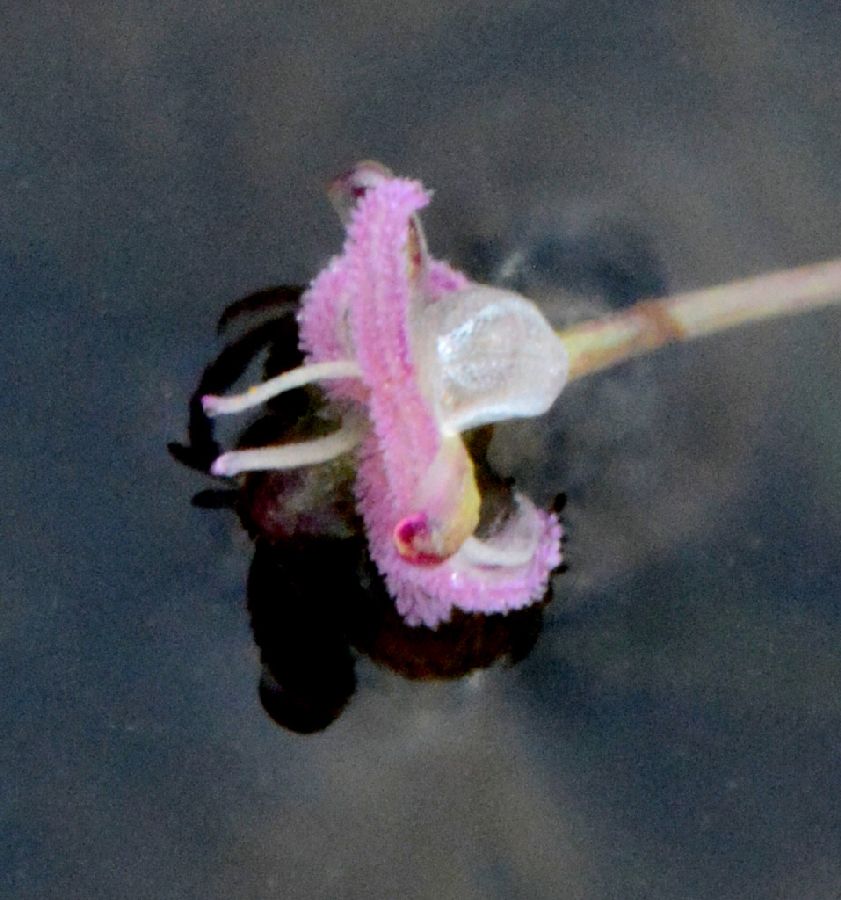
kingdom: Plantae
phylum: Tracheophyta
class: Liliopsida
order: Alismatales
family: Hydrocharitaceae
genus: Elodea
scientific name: Elodea canadensis
